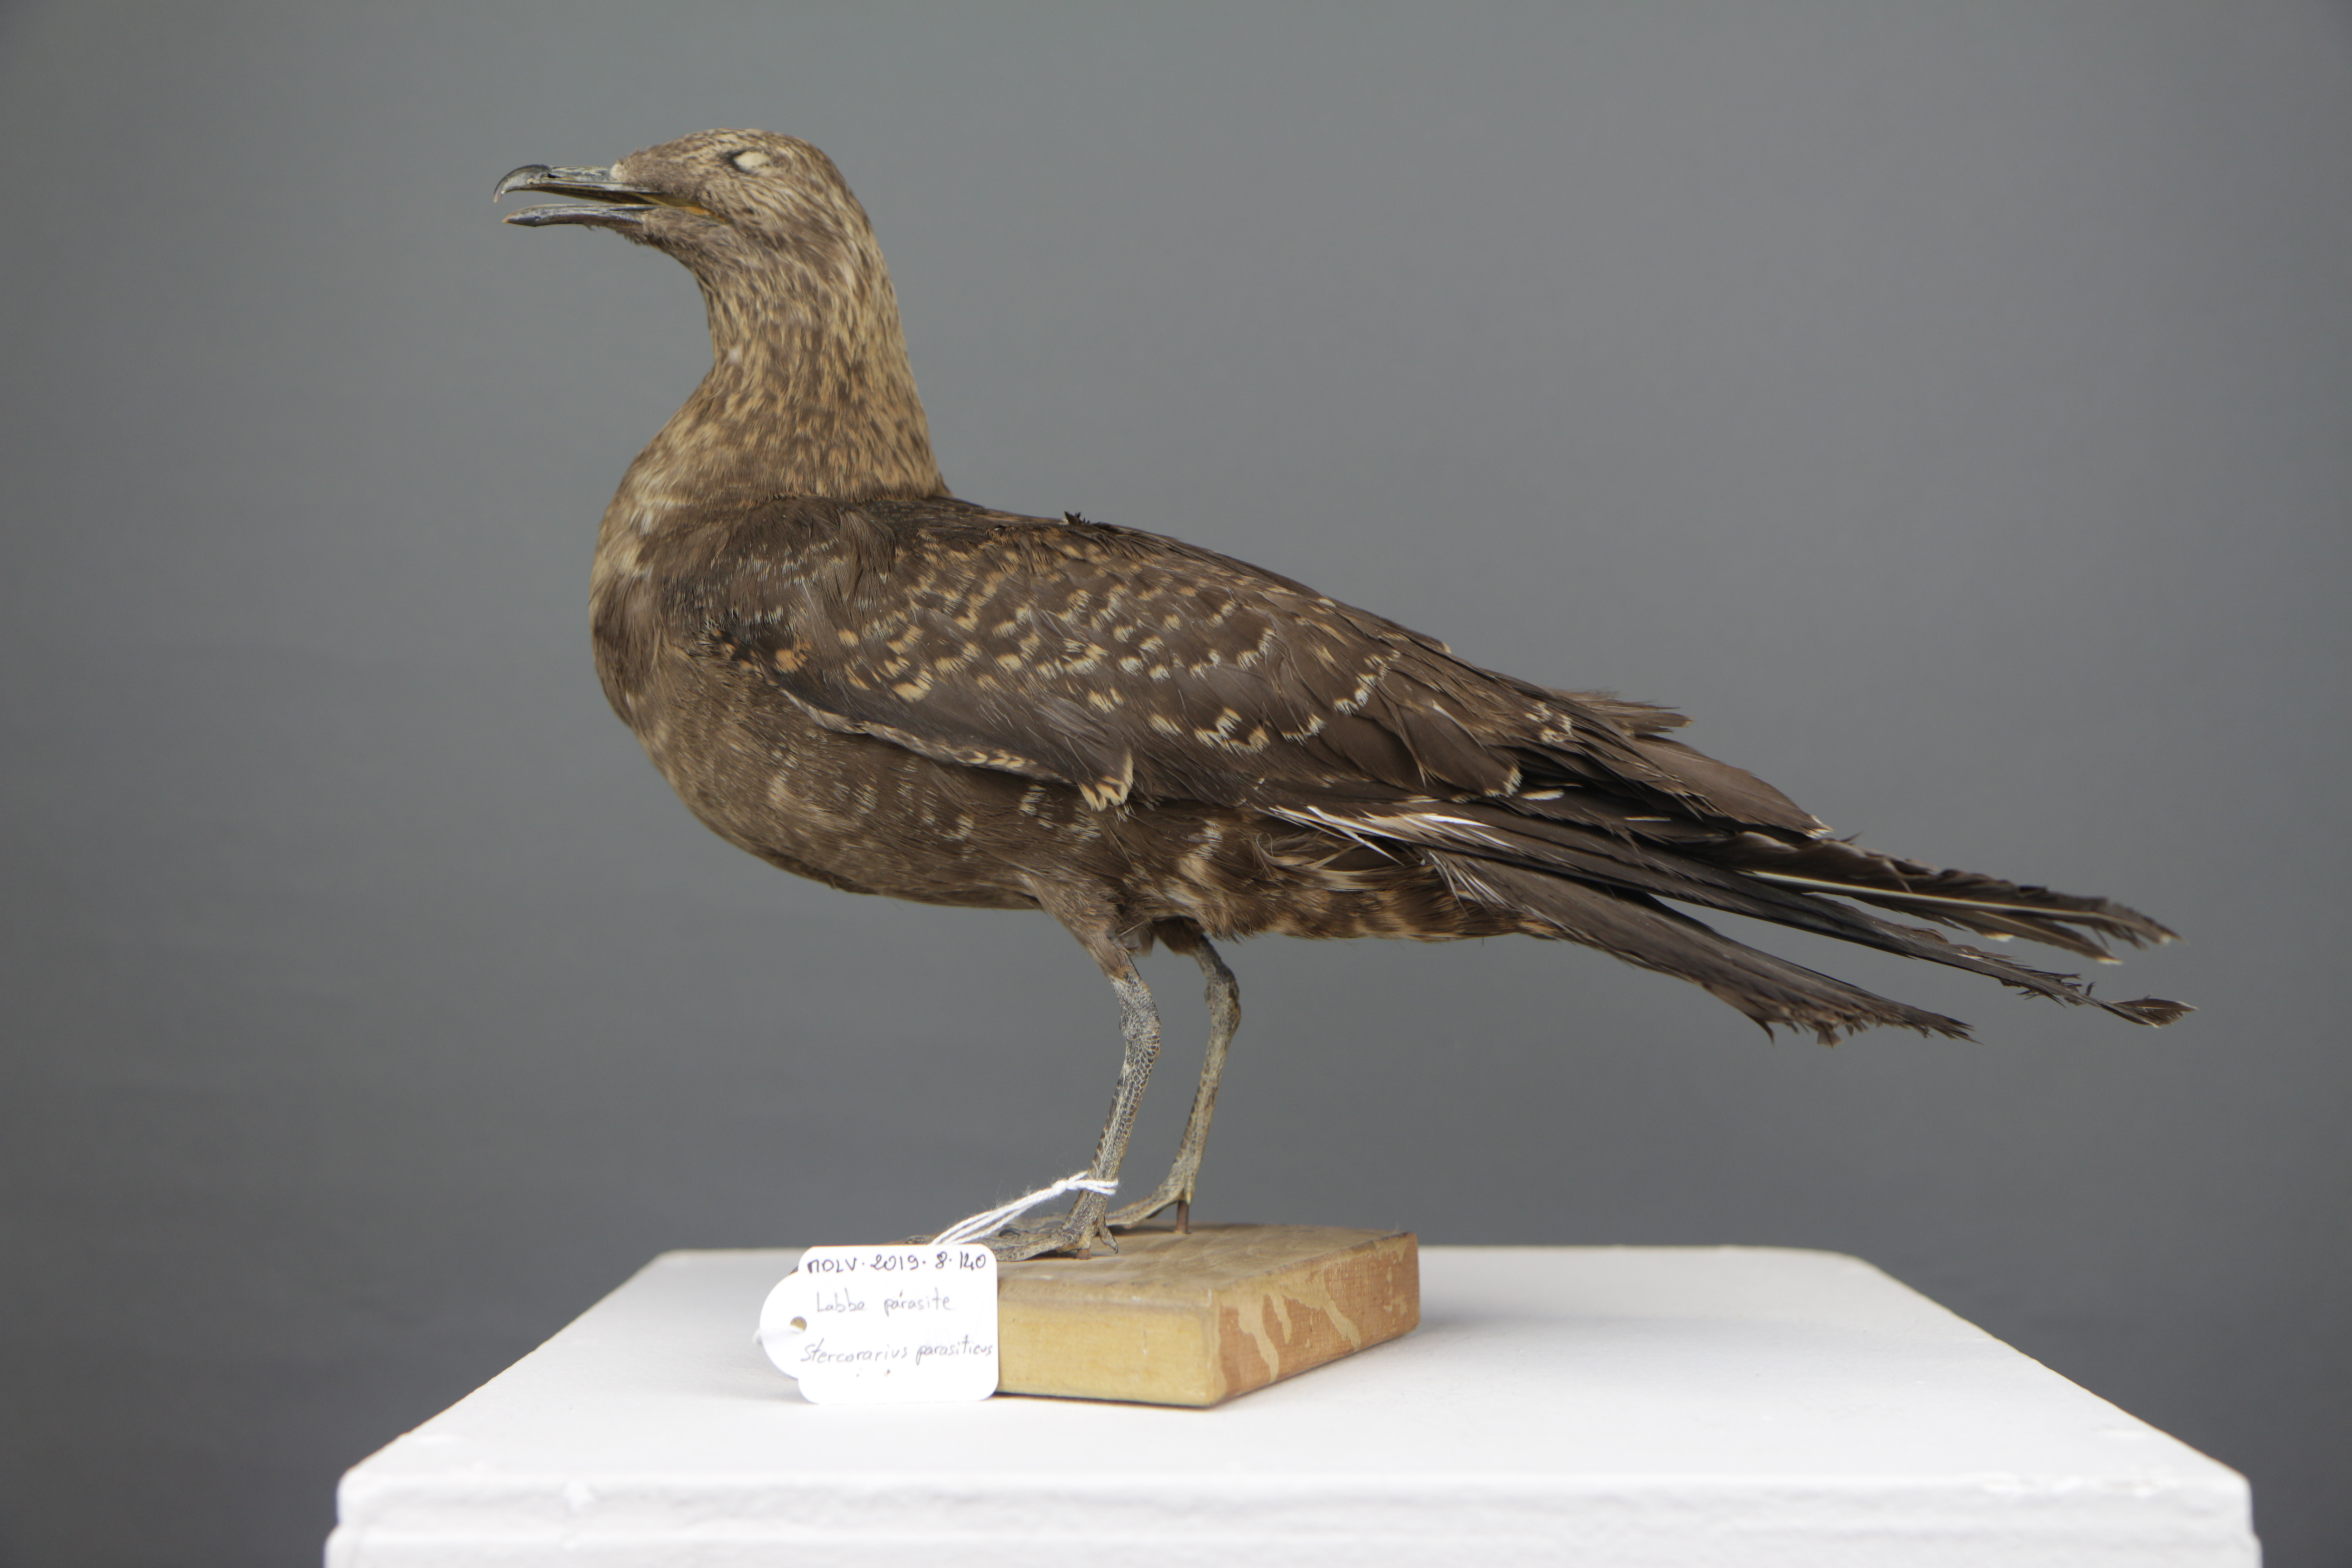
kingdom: Animalia
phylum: Chordata
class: Aves
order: Charadriiformes
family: Stercorariidae
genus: Stercorarius
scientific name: Stercorarius parasiticus
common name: Parasitic jaeger
